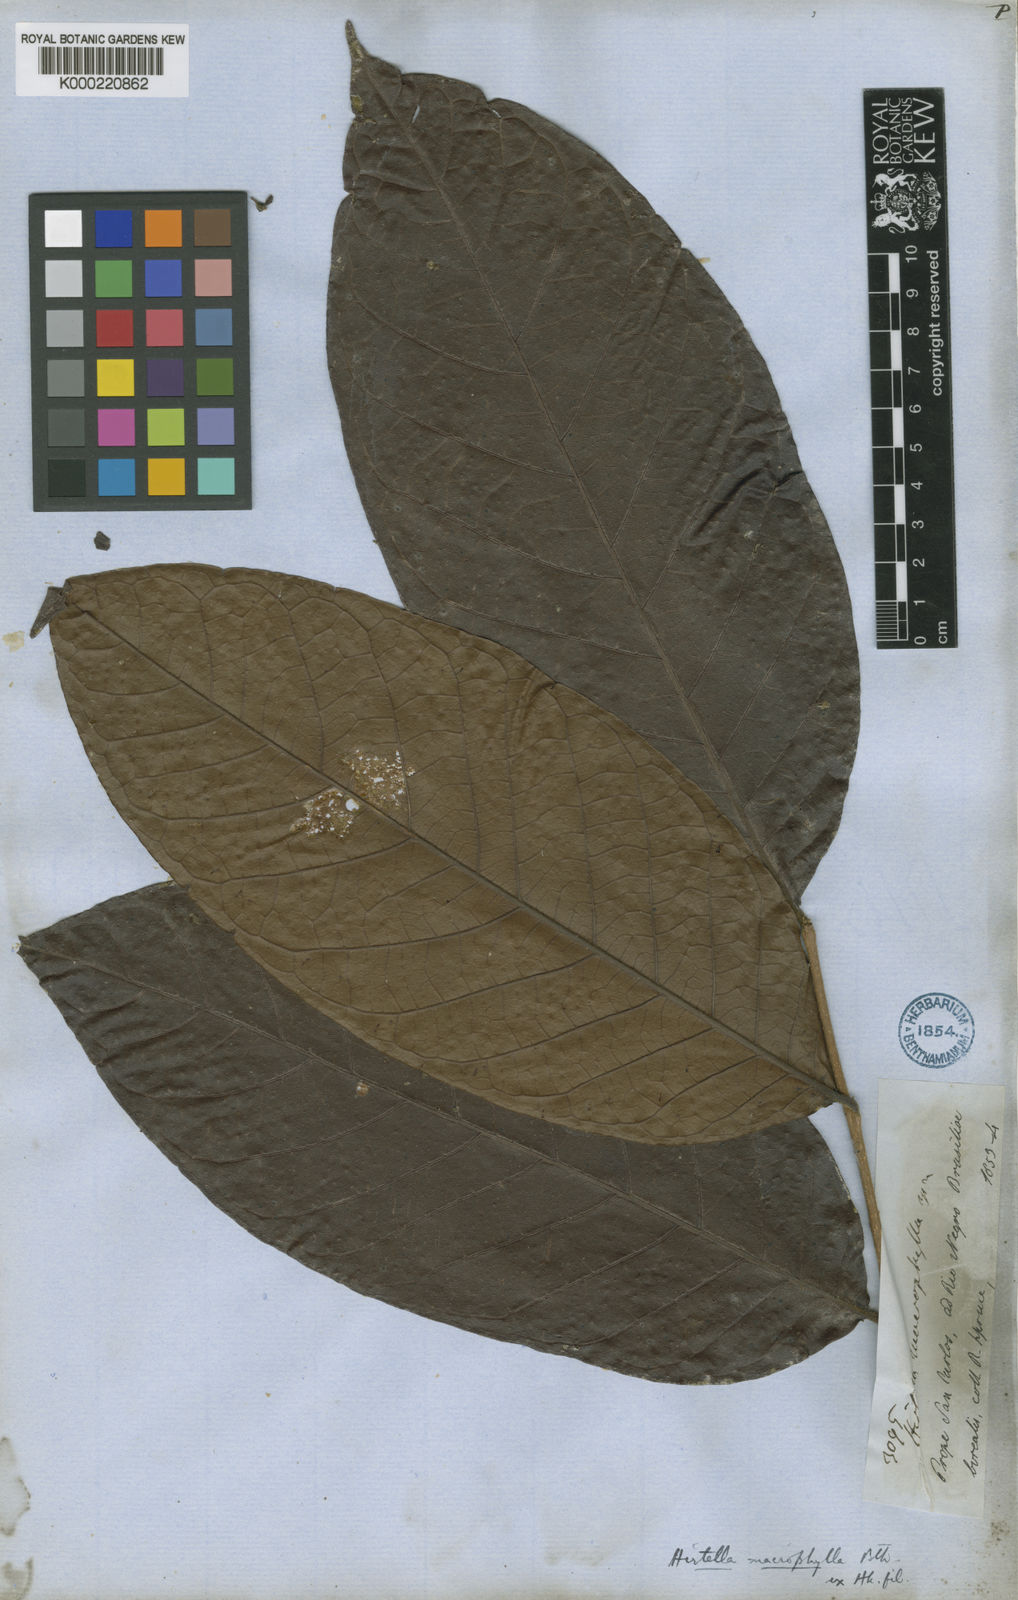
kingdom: Plantae
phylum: Tracheophyta
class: Magnoliopsida
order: Malpighiales
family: Chrysobalanaceae
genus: Hirtella
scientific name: Hirtella macrophylla
